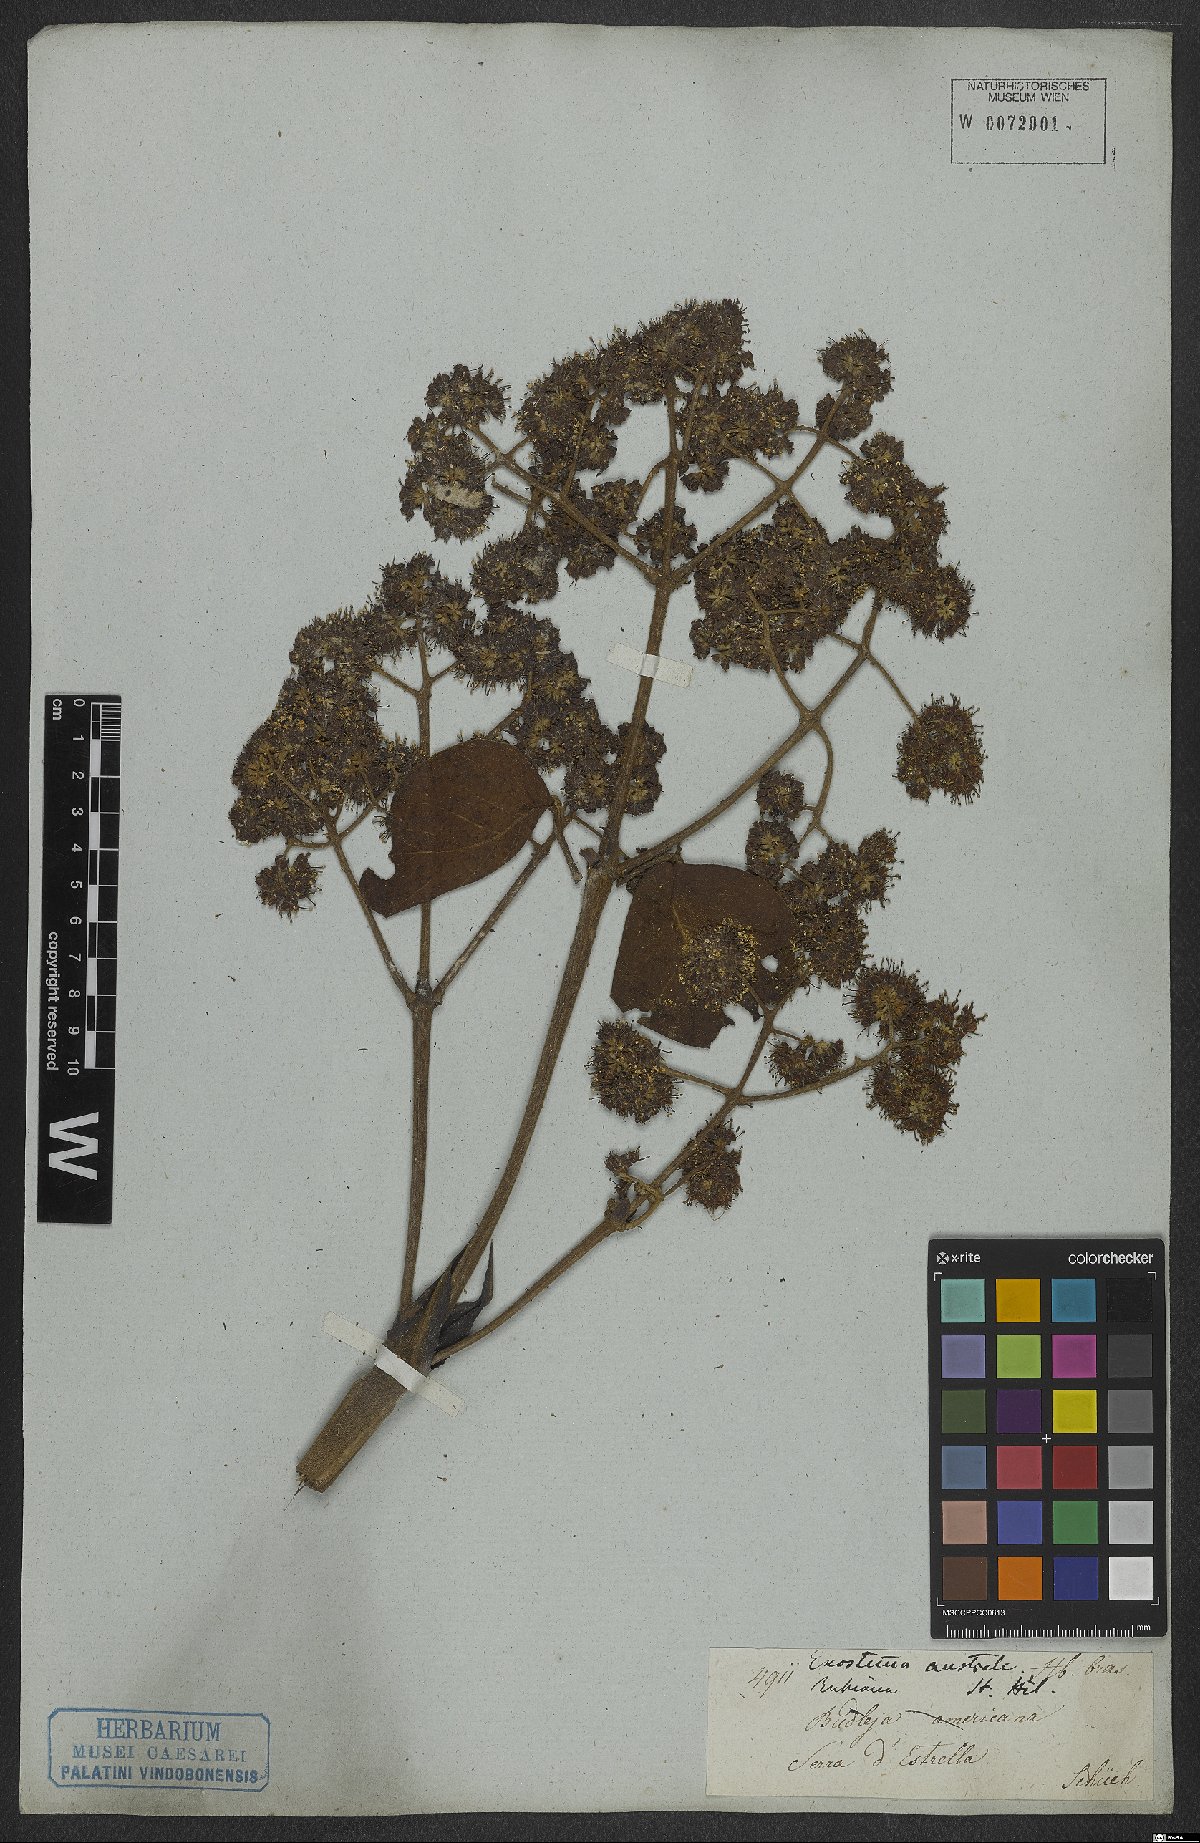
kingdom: Plantae
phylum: Tracheophyta
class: Magnoliopsida
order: Gentianales
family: Rubiaceae
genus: Bathysa
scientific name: Bathysa australis
